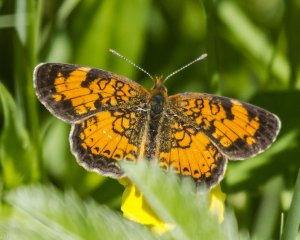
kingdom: Animalia
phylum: Arthropoda
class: Insecta
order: Lepidoptera
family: Nymphalidae
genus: Phyciodes
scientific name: Phyciodes tharos
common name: Northern Crescent
